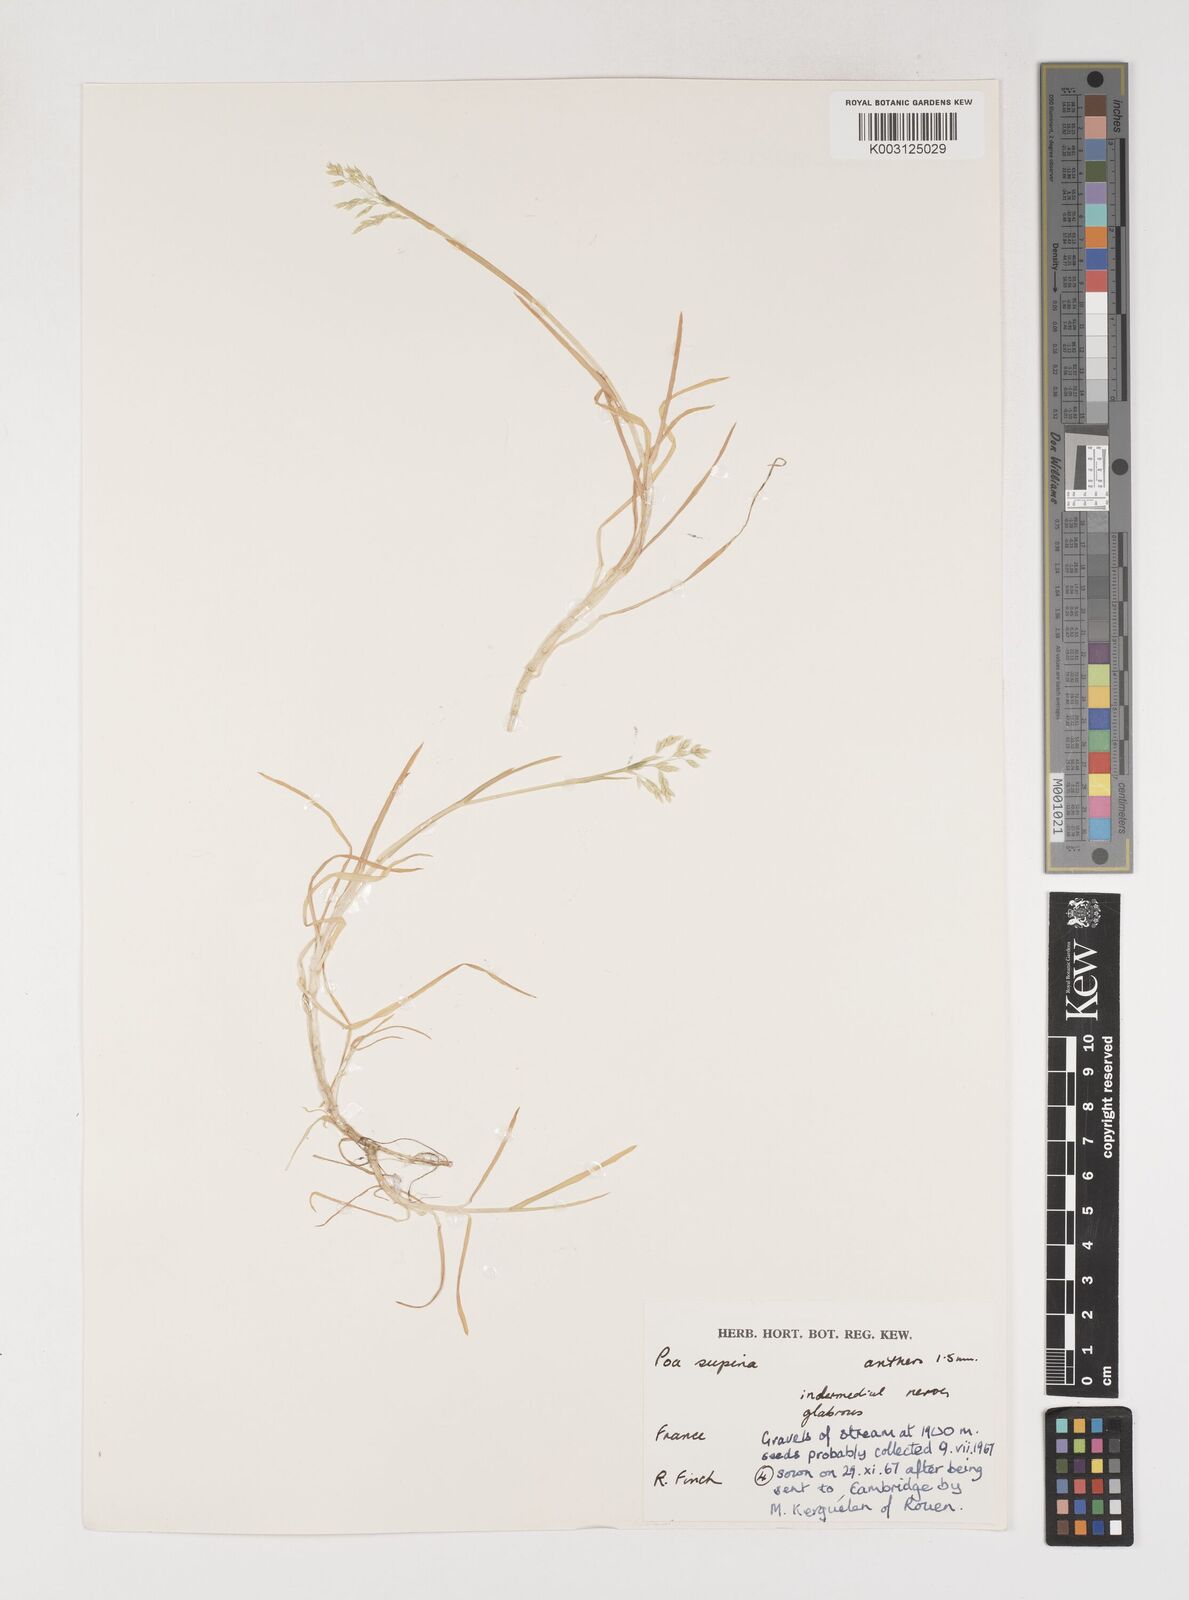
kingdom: Plantae
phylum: Tracheophyta
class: Liliopsida
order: Poales
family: Poaceae
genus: Poa
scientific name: Poa supina
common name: Supina bluegrass
